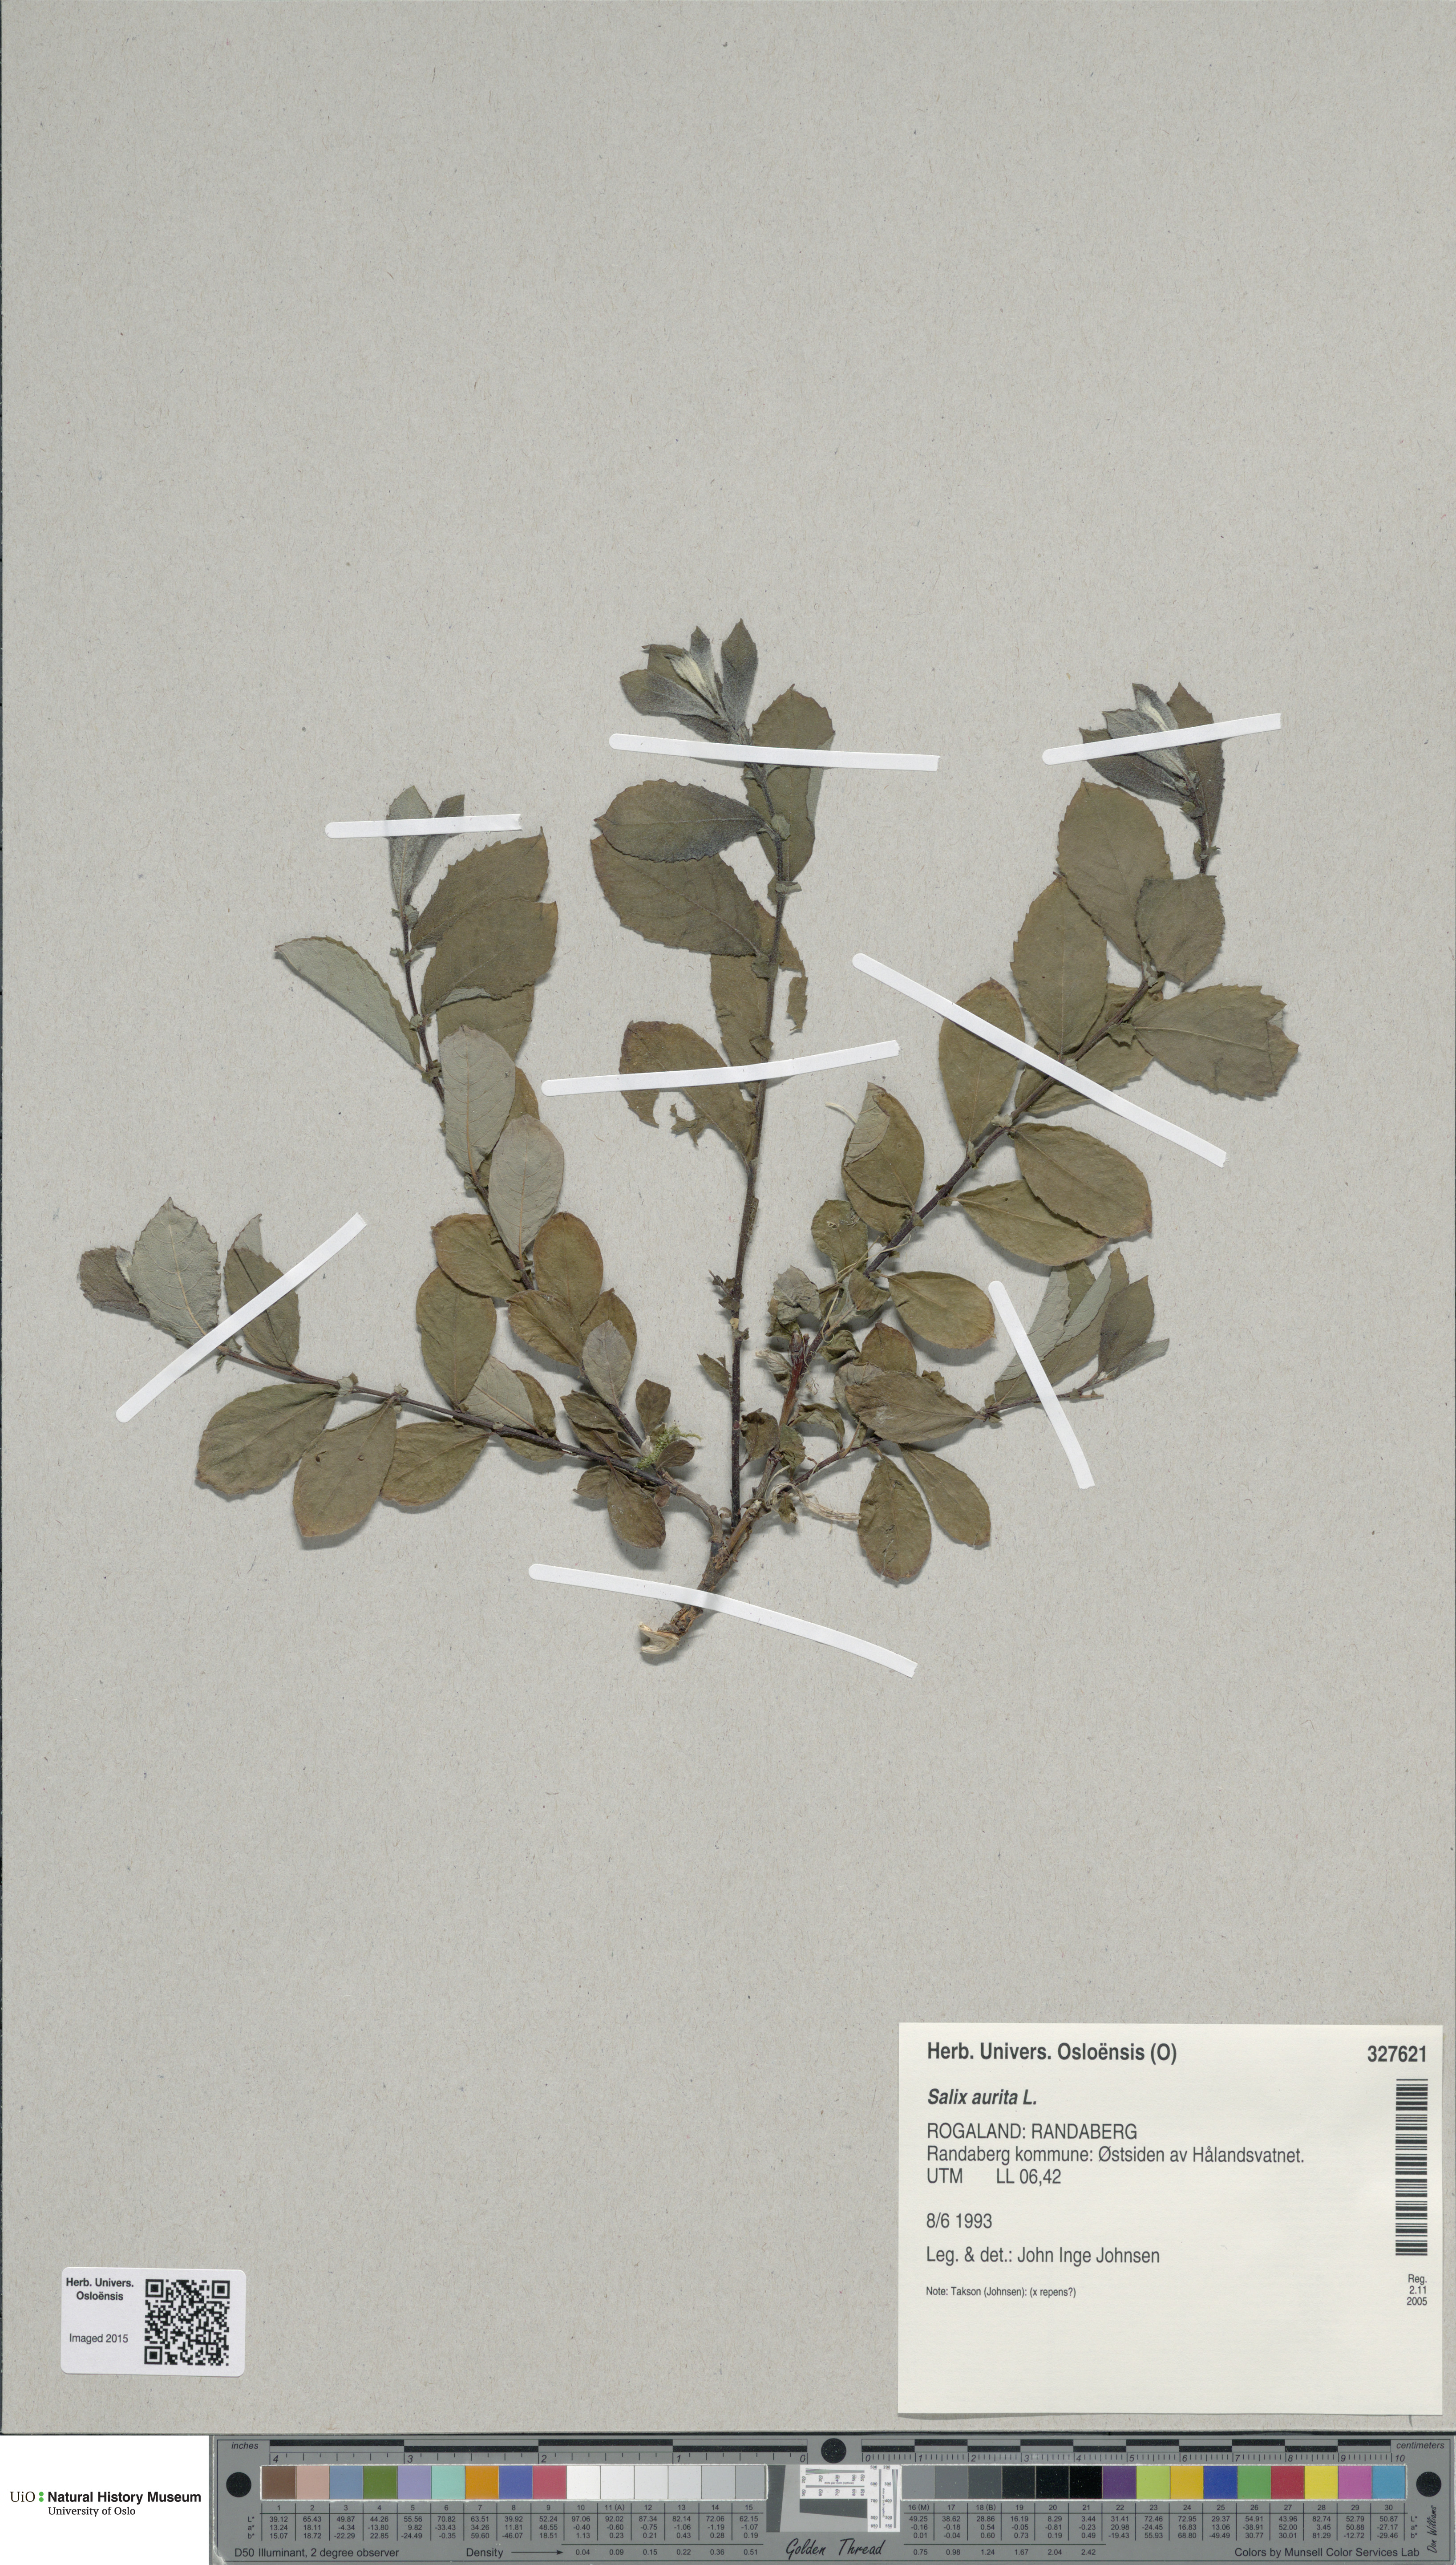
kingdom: Plantae
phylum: Tracheophyta
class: Magnoliopsida
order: Malpighiales
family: Salicaceae
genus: Salix
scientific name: Salix aurita
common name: Eared willow
